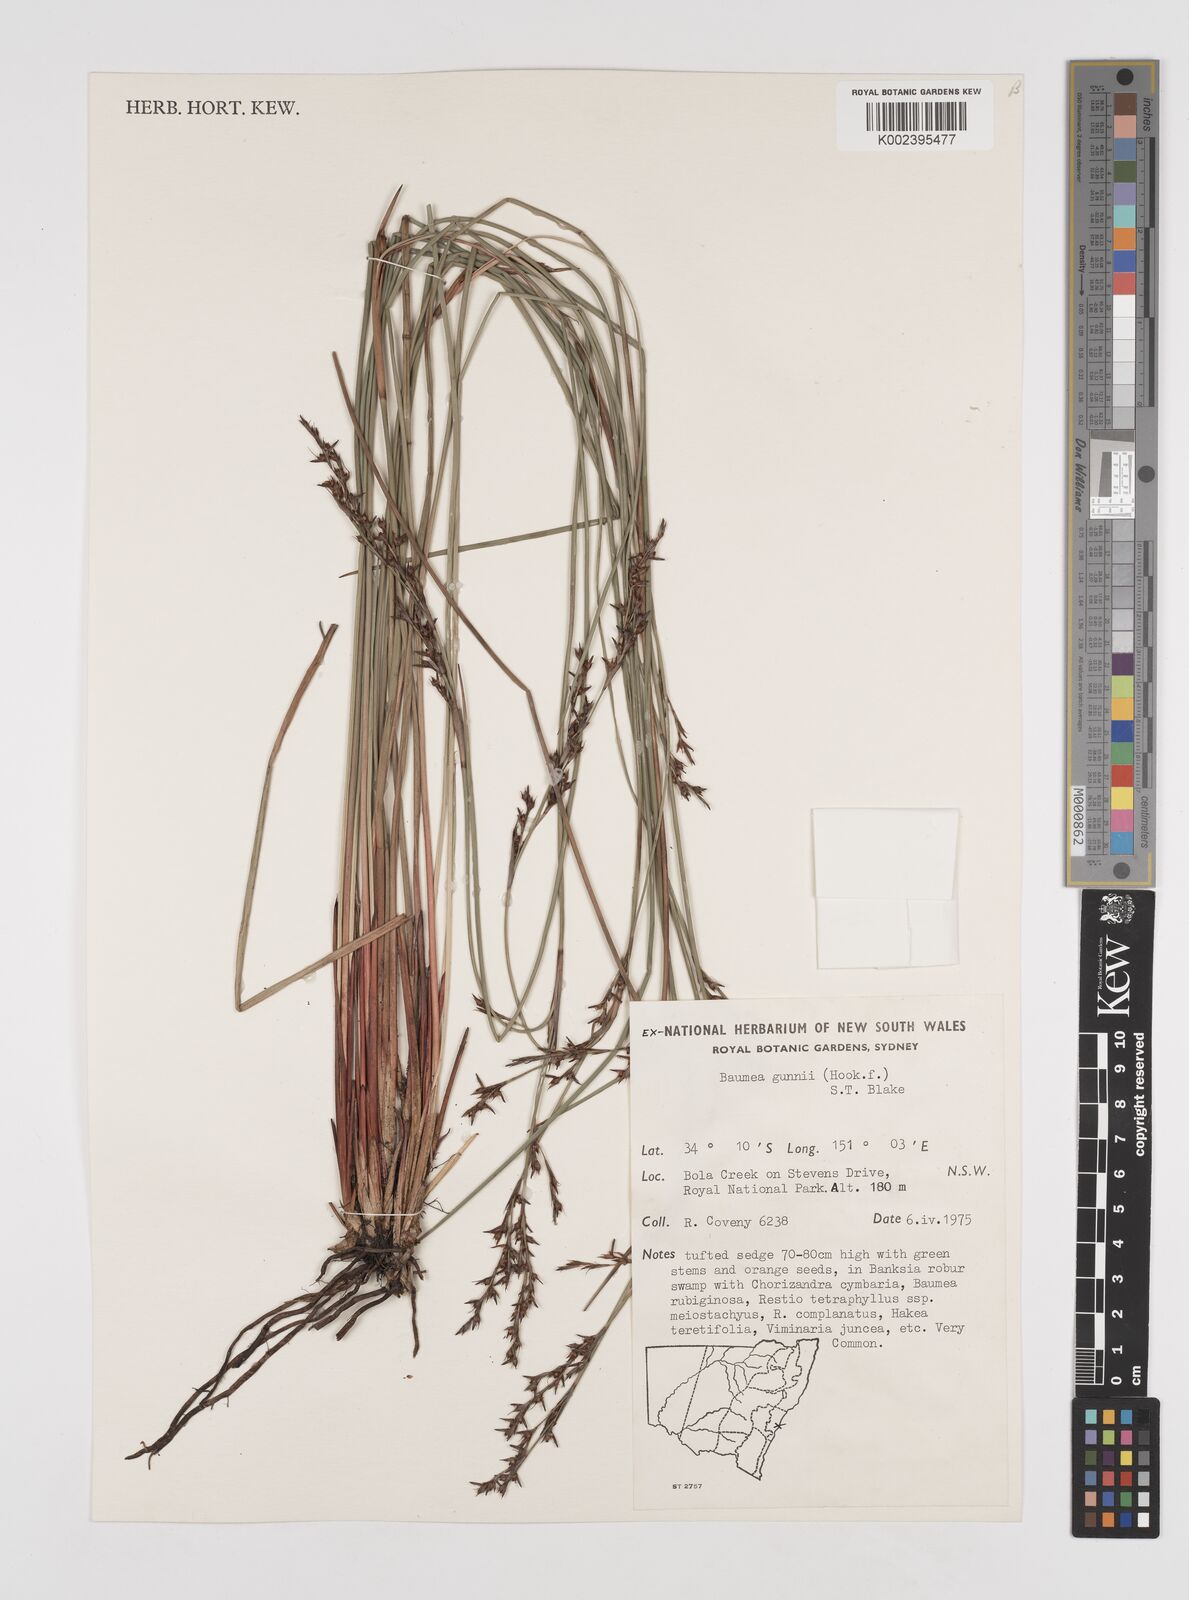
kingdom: Plantae
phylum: Tracheophyta
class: Liliopsida
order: Poales
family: Cyperaceae
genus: Machaerina
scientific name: Machaerina gunnii
